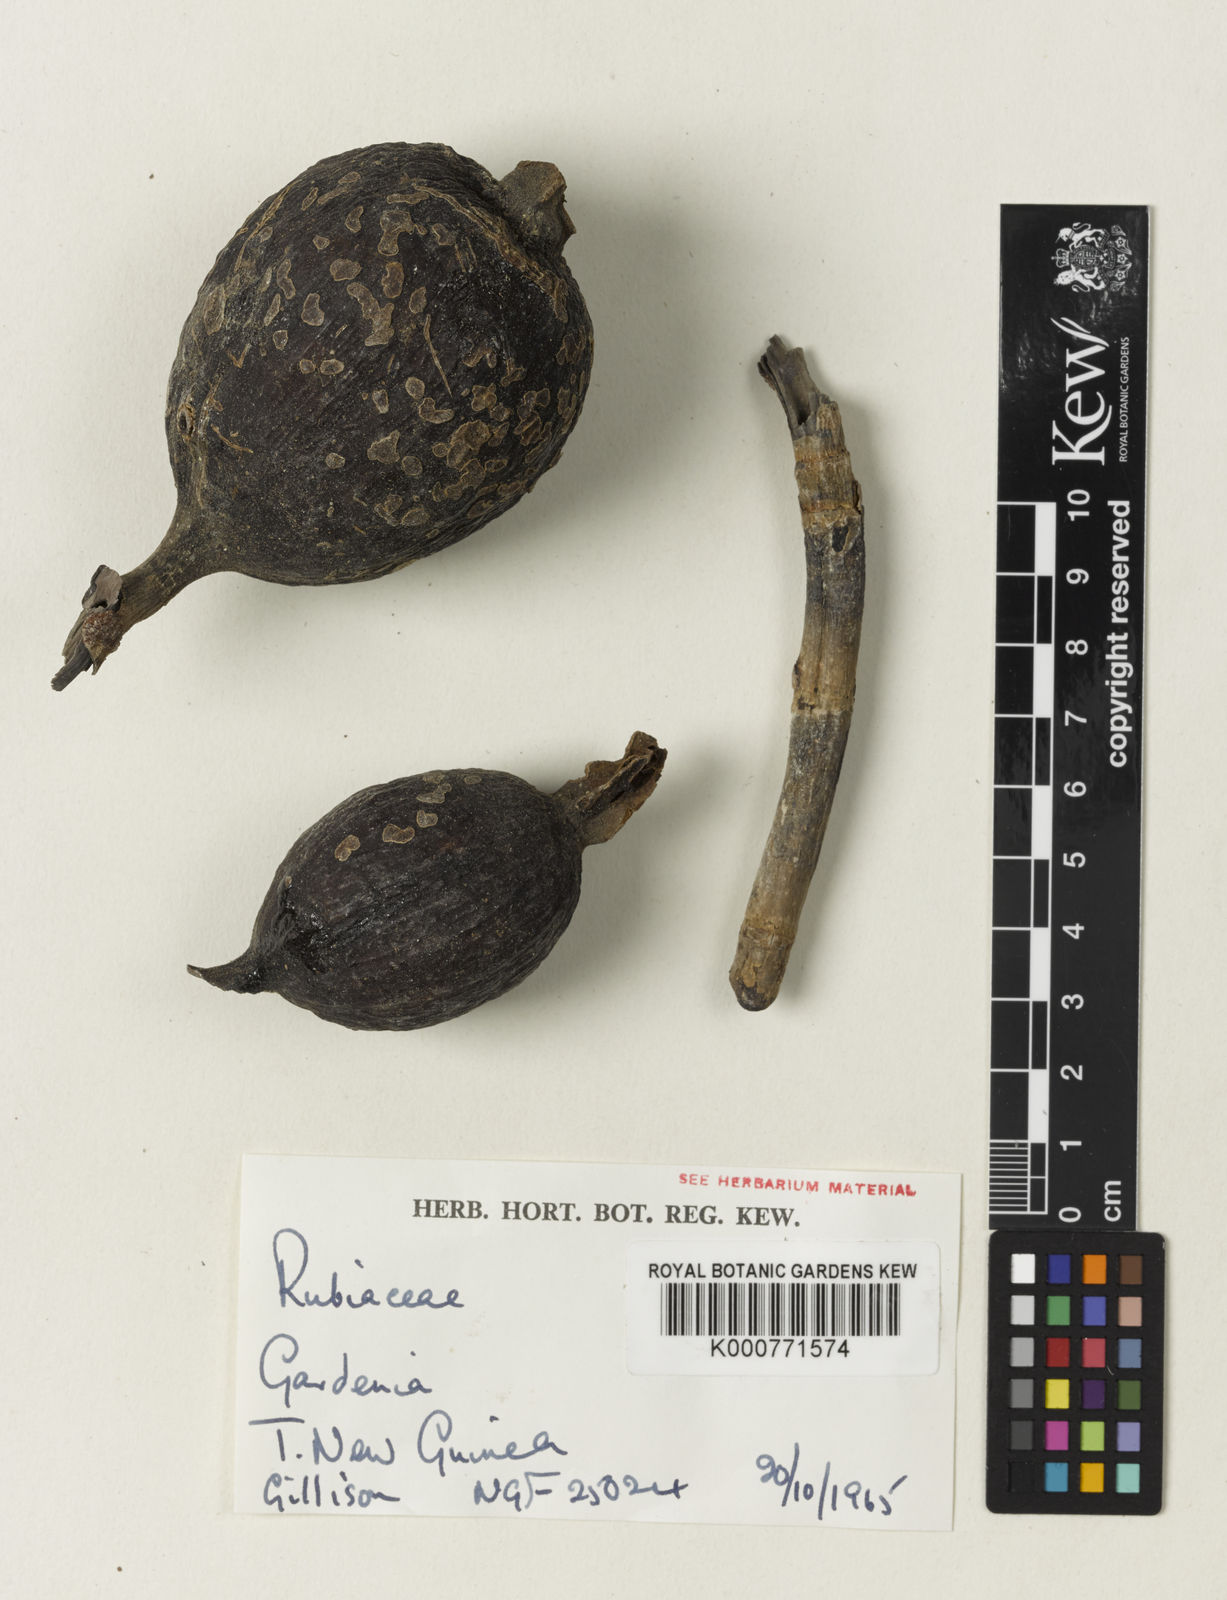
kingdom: Plantae
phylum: Tracheophyta
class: Magnoliopsida
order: Gentianales
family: Rubiaceae
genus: Gardenia
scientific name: Gardenia
